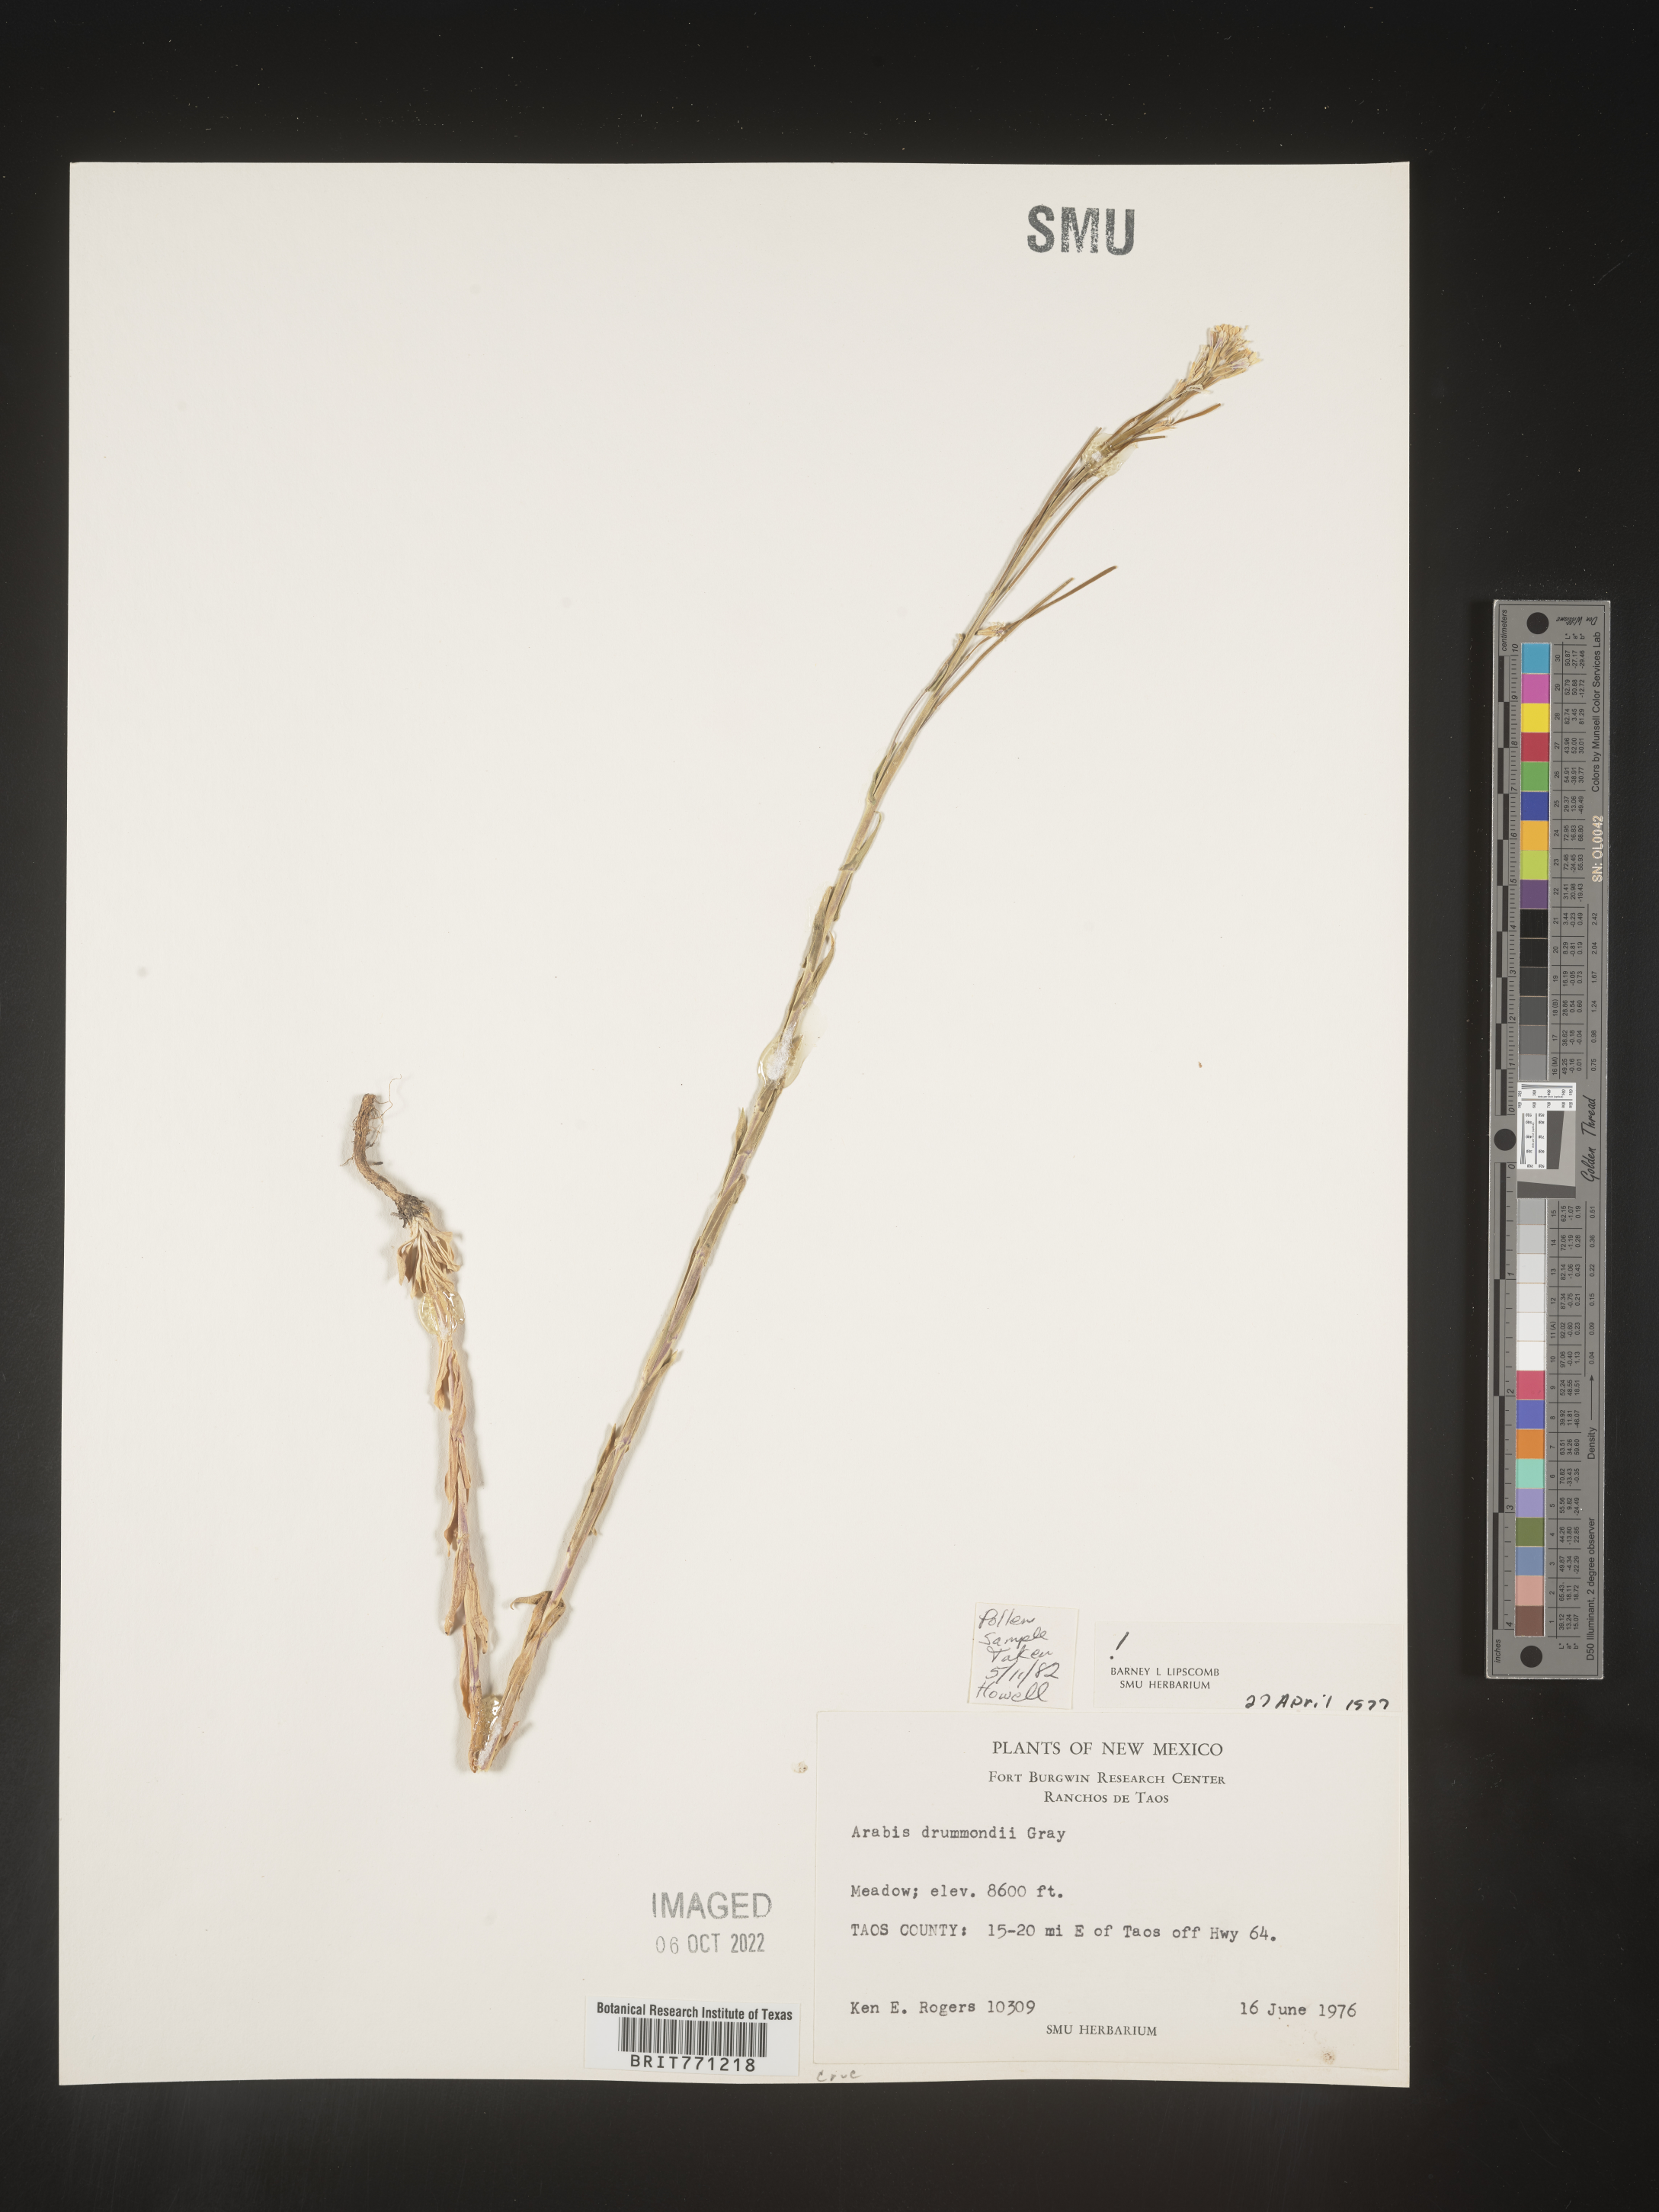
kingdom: Plantae
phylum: Tracheophyta
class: Magnoliopsida
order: Brassicales
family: Brassicaceae
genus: Boechera
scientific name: Boechera stricta
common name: Canadian rockcress
